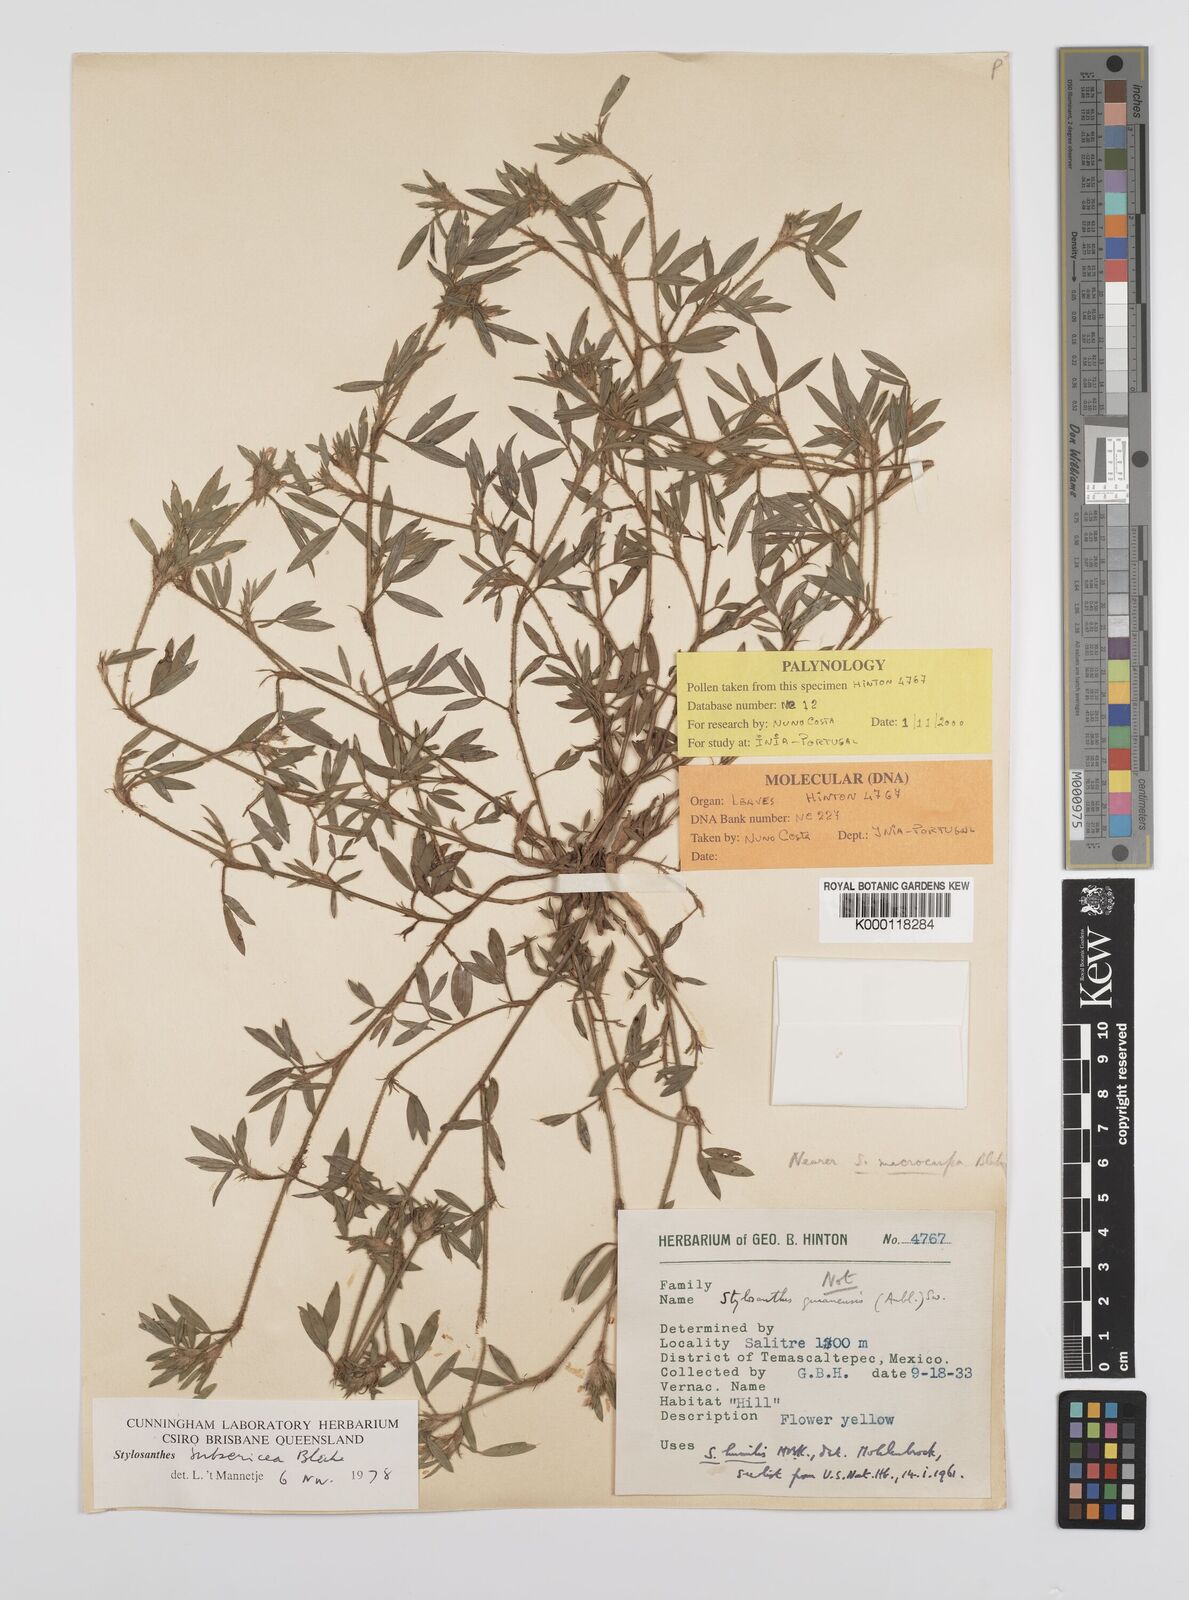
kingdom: Plantae
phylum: Tracheophyta
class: Magnoliopsida
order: Fabales
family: Fabaceae
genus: Stylosanthes
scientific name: Stylosanthes scabra
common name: Pencilflower
